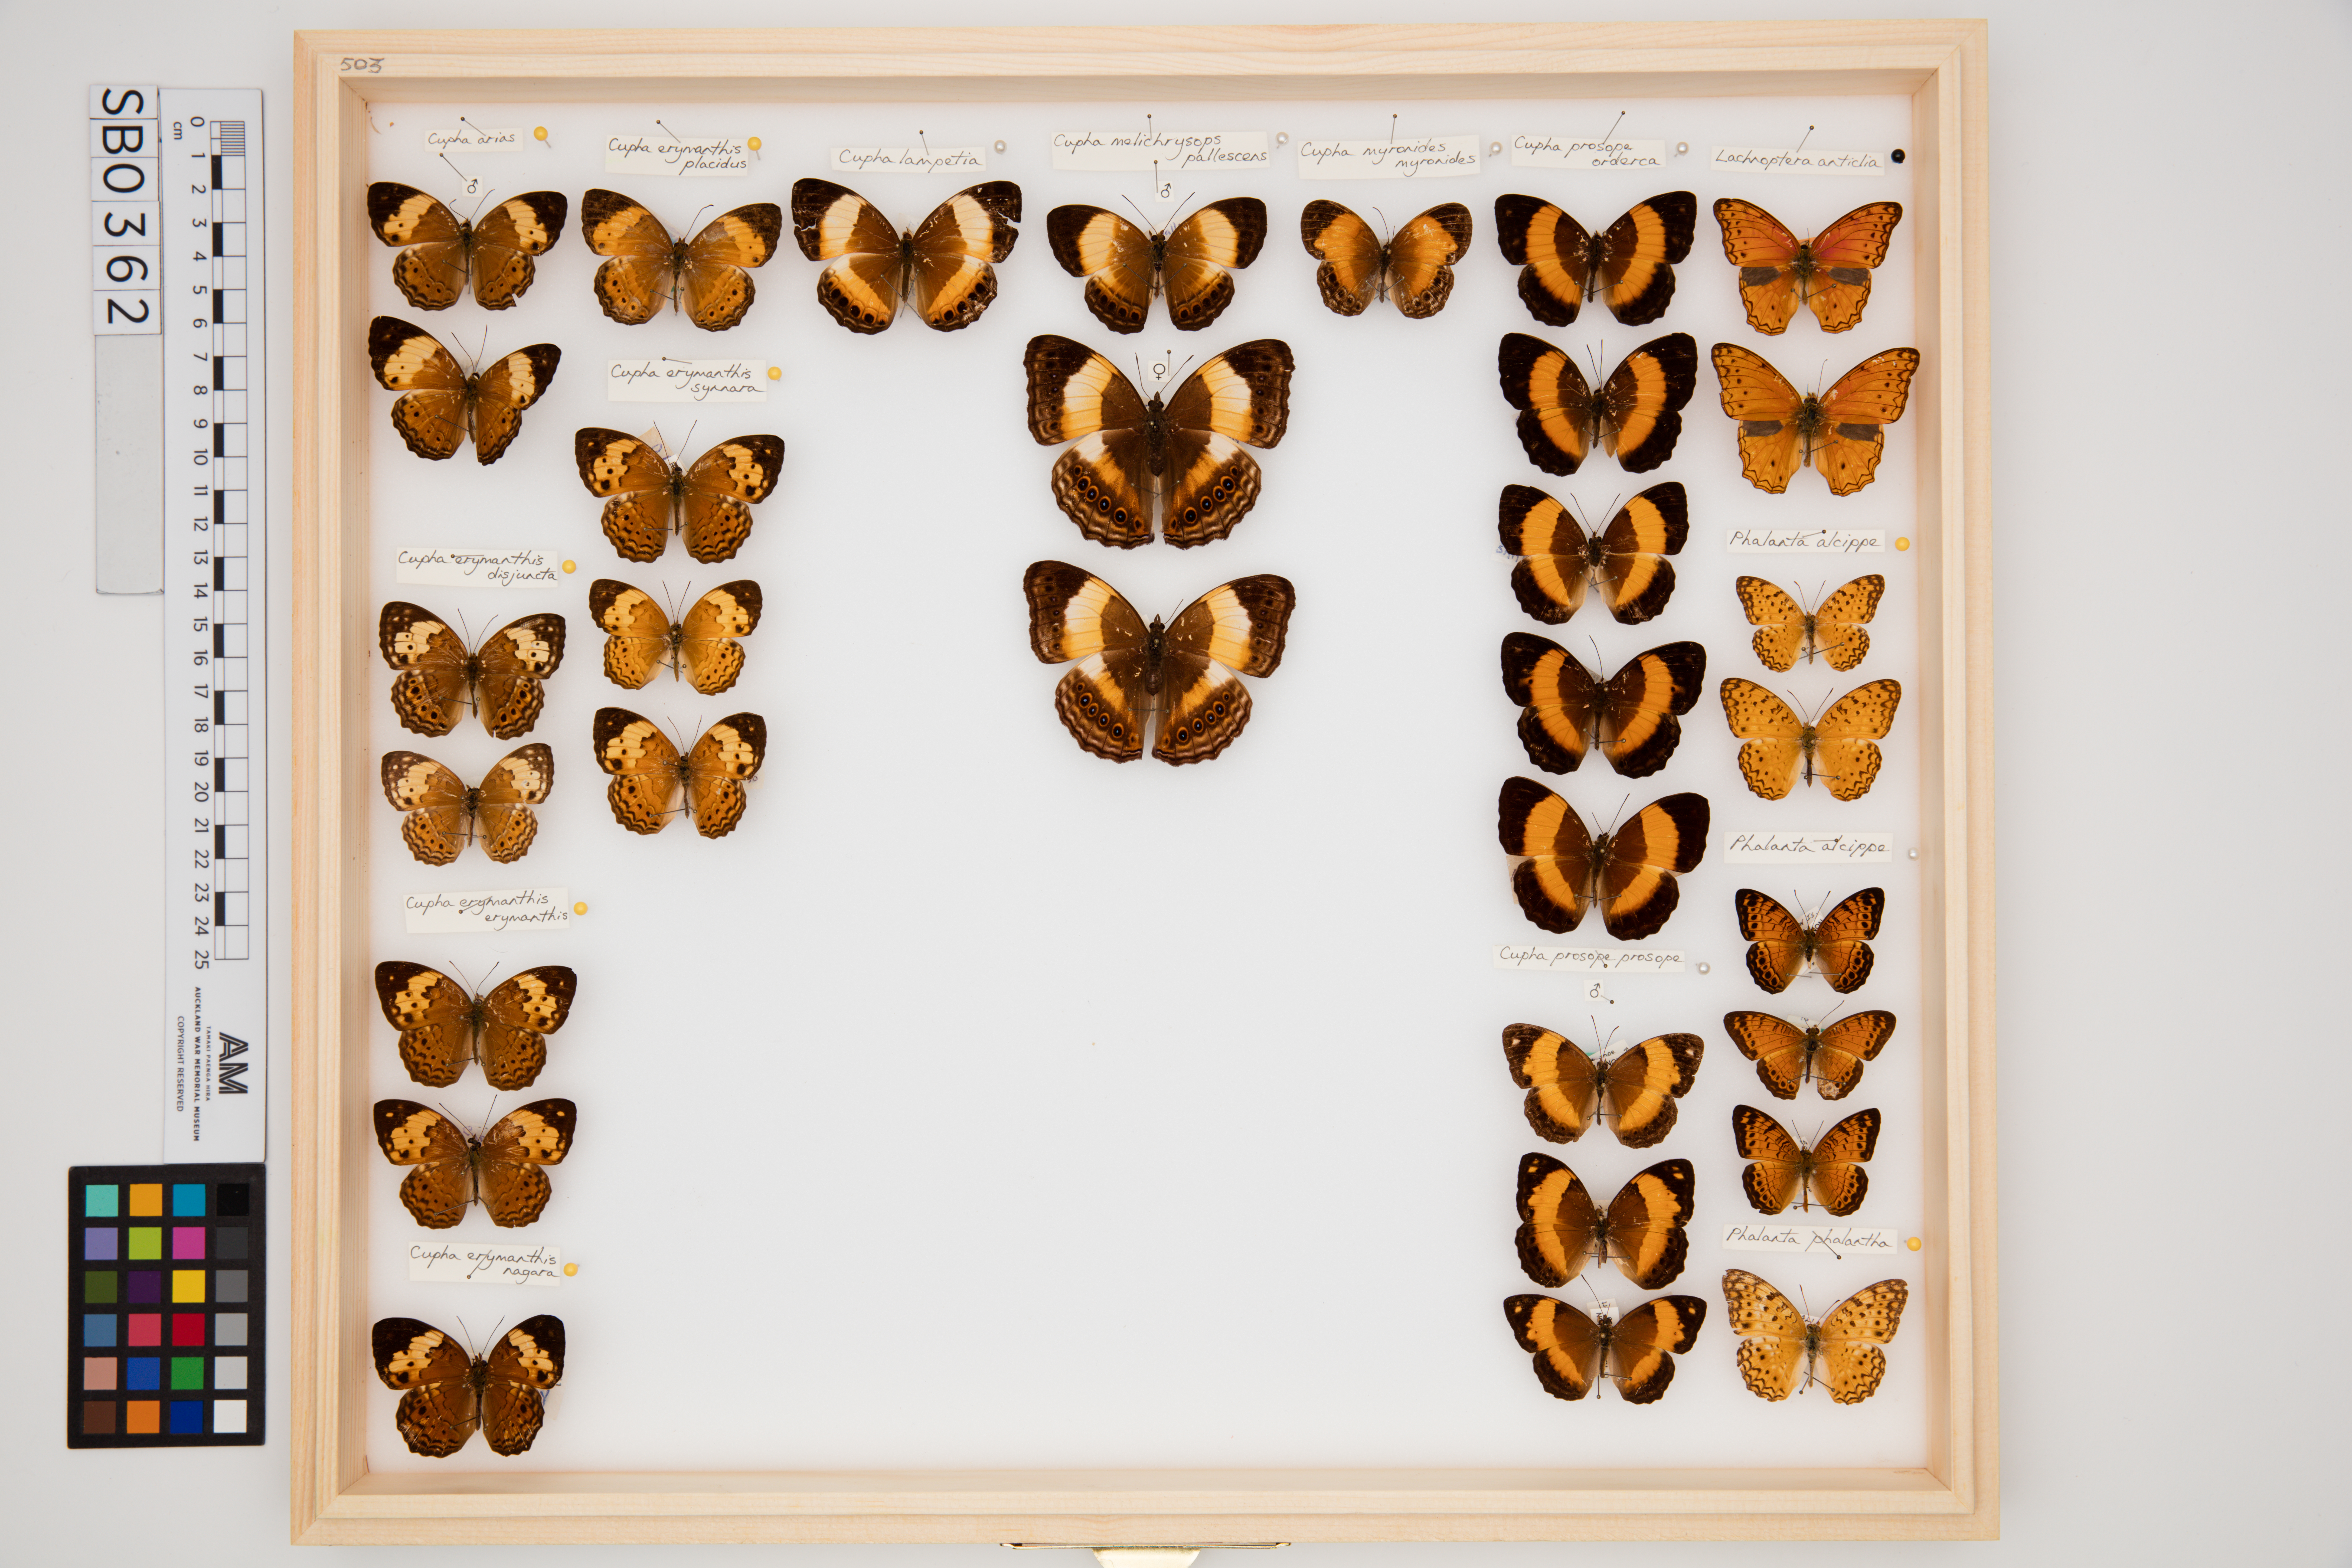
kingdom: Animalia
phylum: Arthropoda
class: Insecta
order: Lepidoptera
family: Nymphalidae
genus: Phalanta
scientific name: Phalanta alcippe
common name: Small leopard
